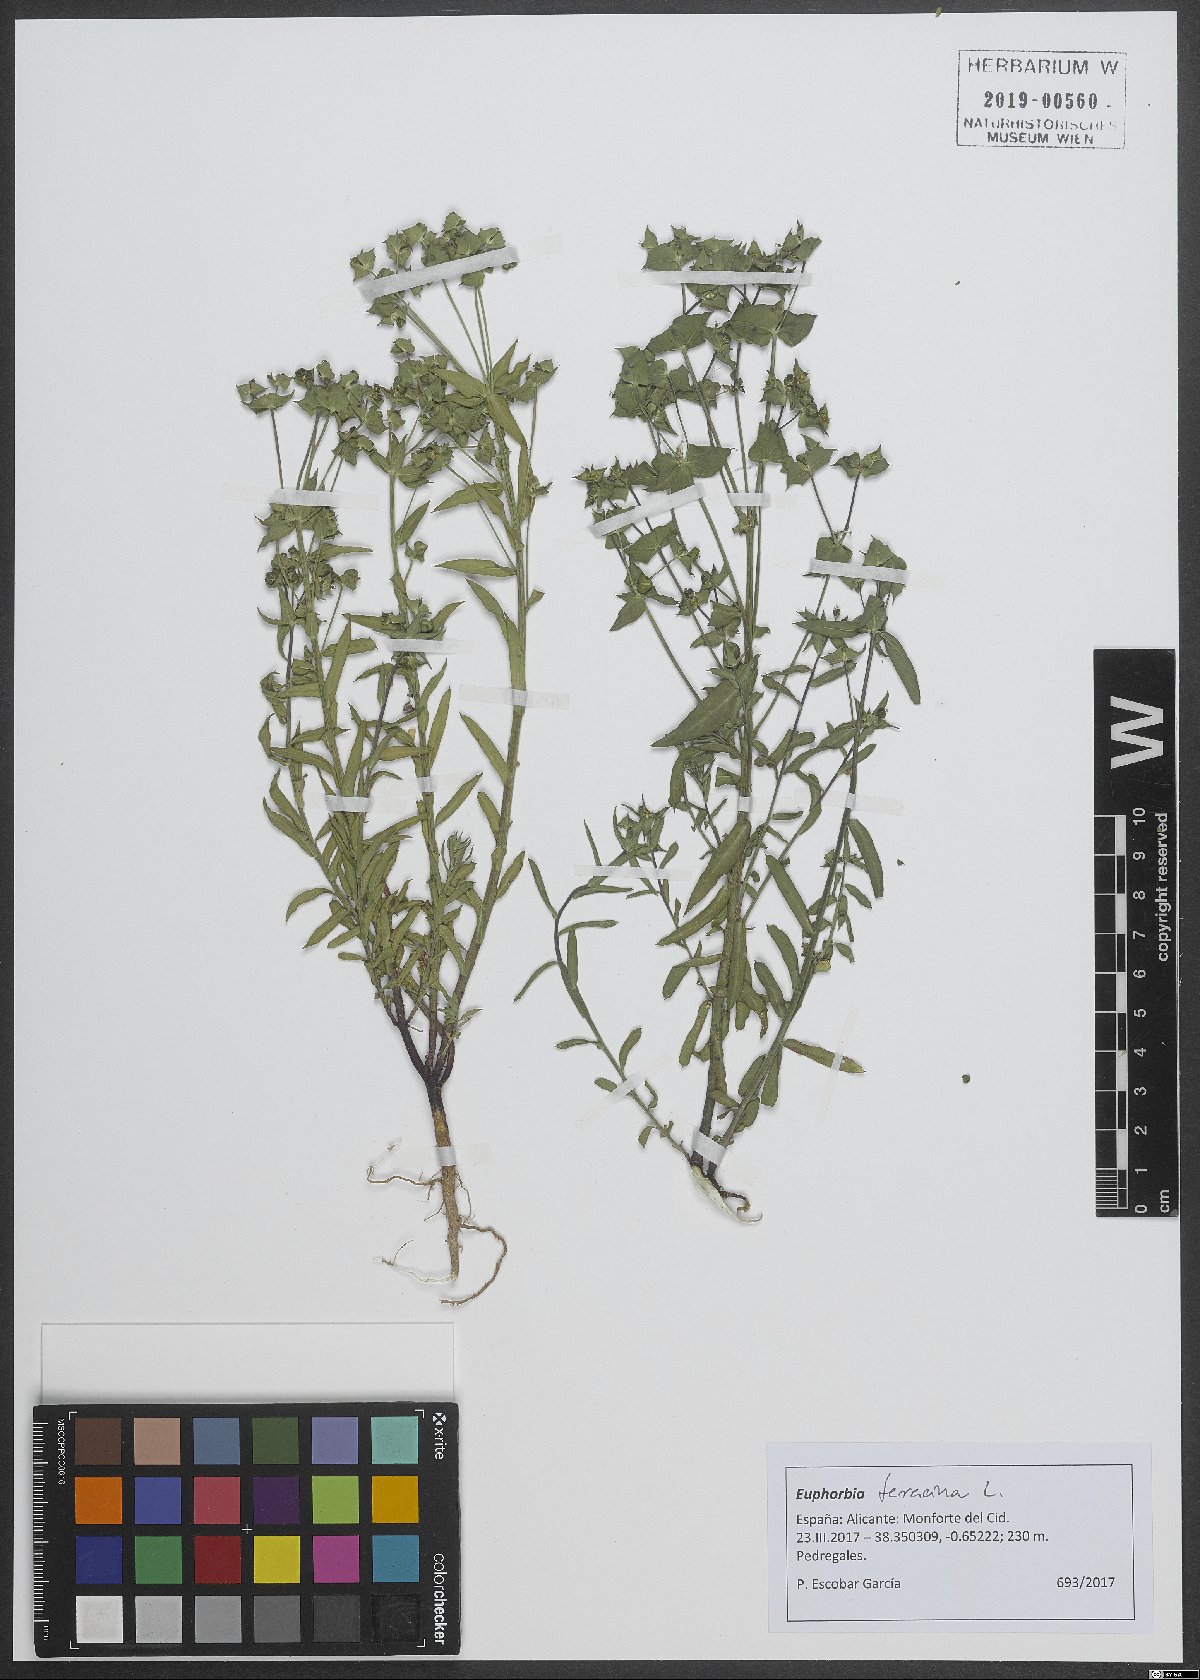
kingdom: Plantae
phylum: Tracheophyta
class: Magnoliopsida
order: Malpighiales
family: Euphorbiaceae
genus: Euphorbia
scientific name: Euphorbia terracina
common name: Geraldton carnation weed
